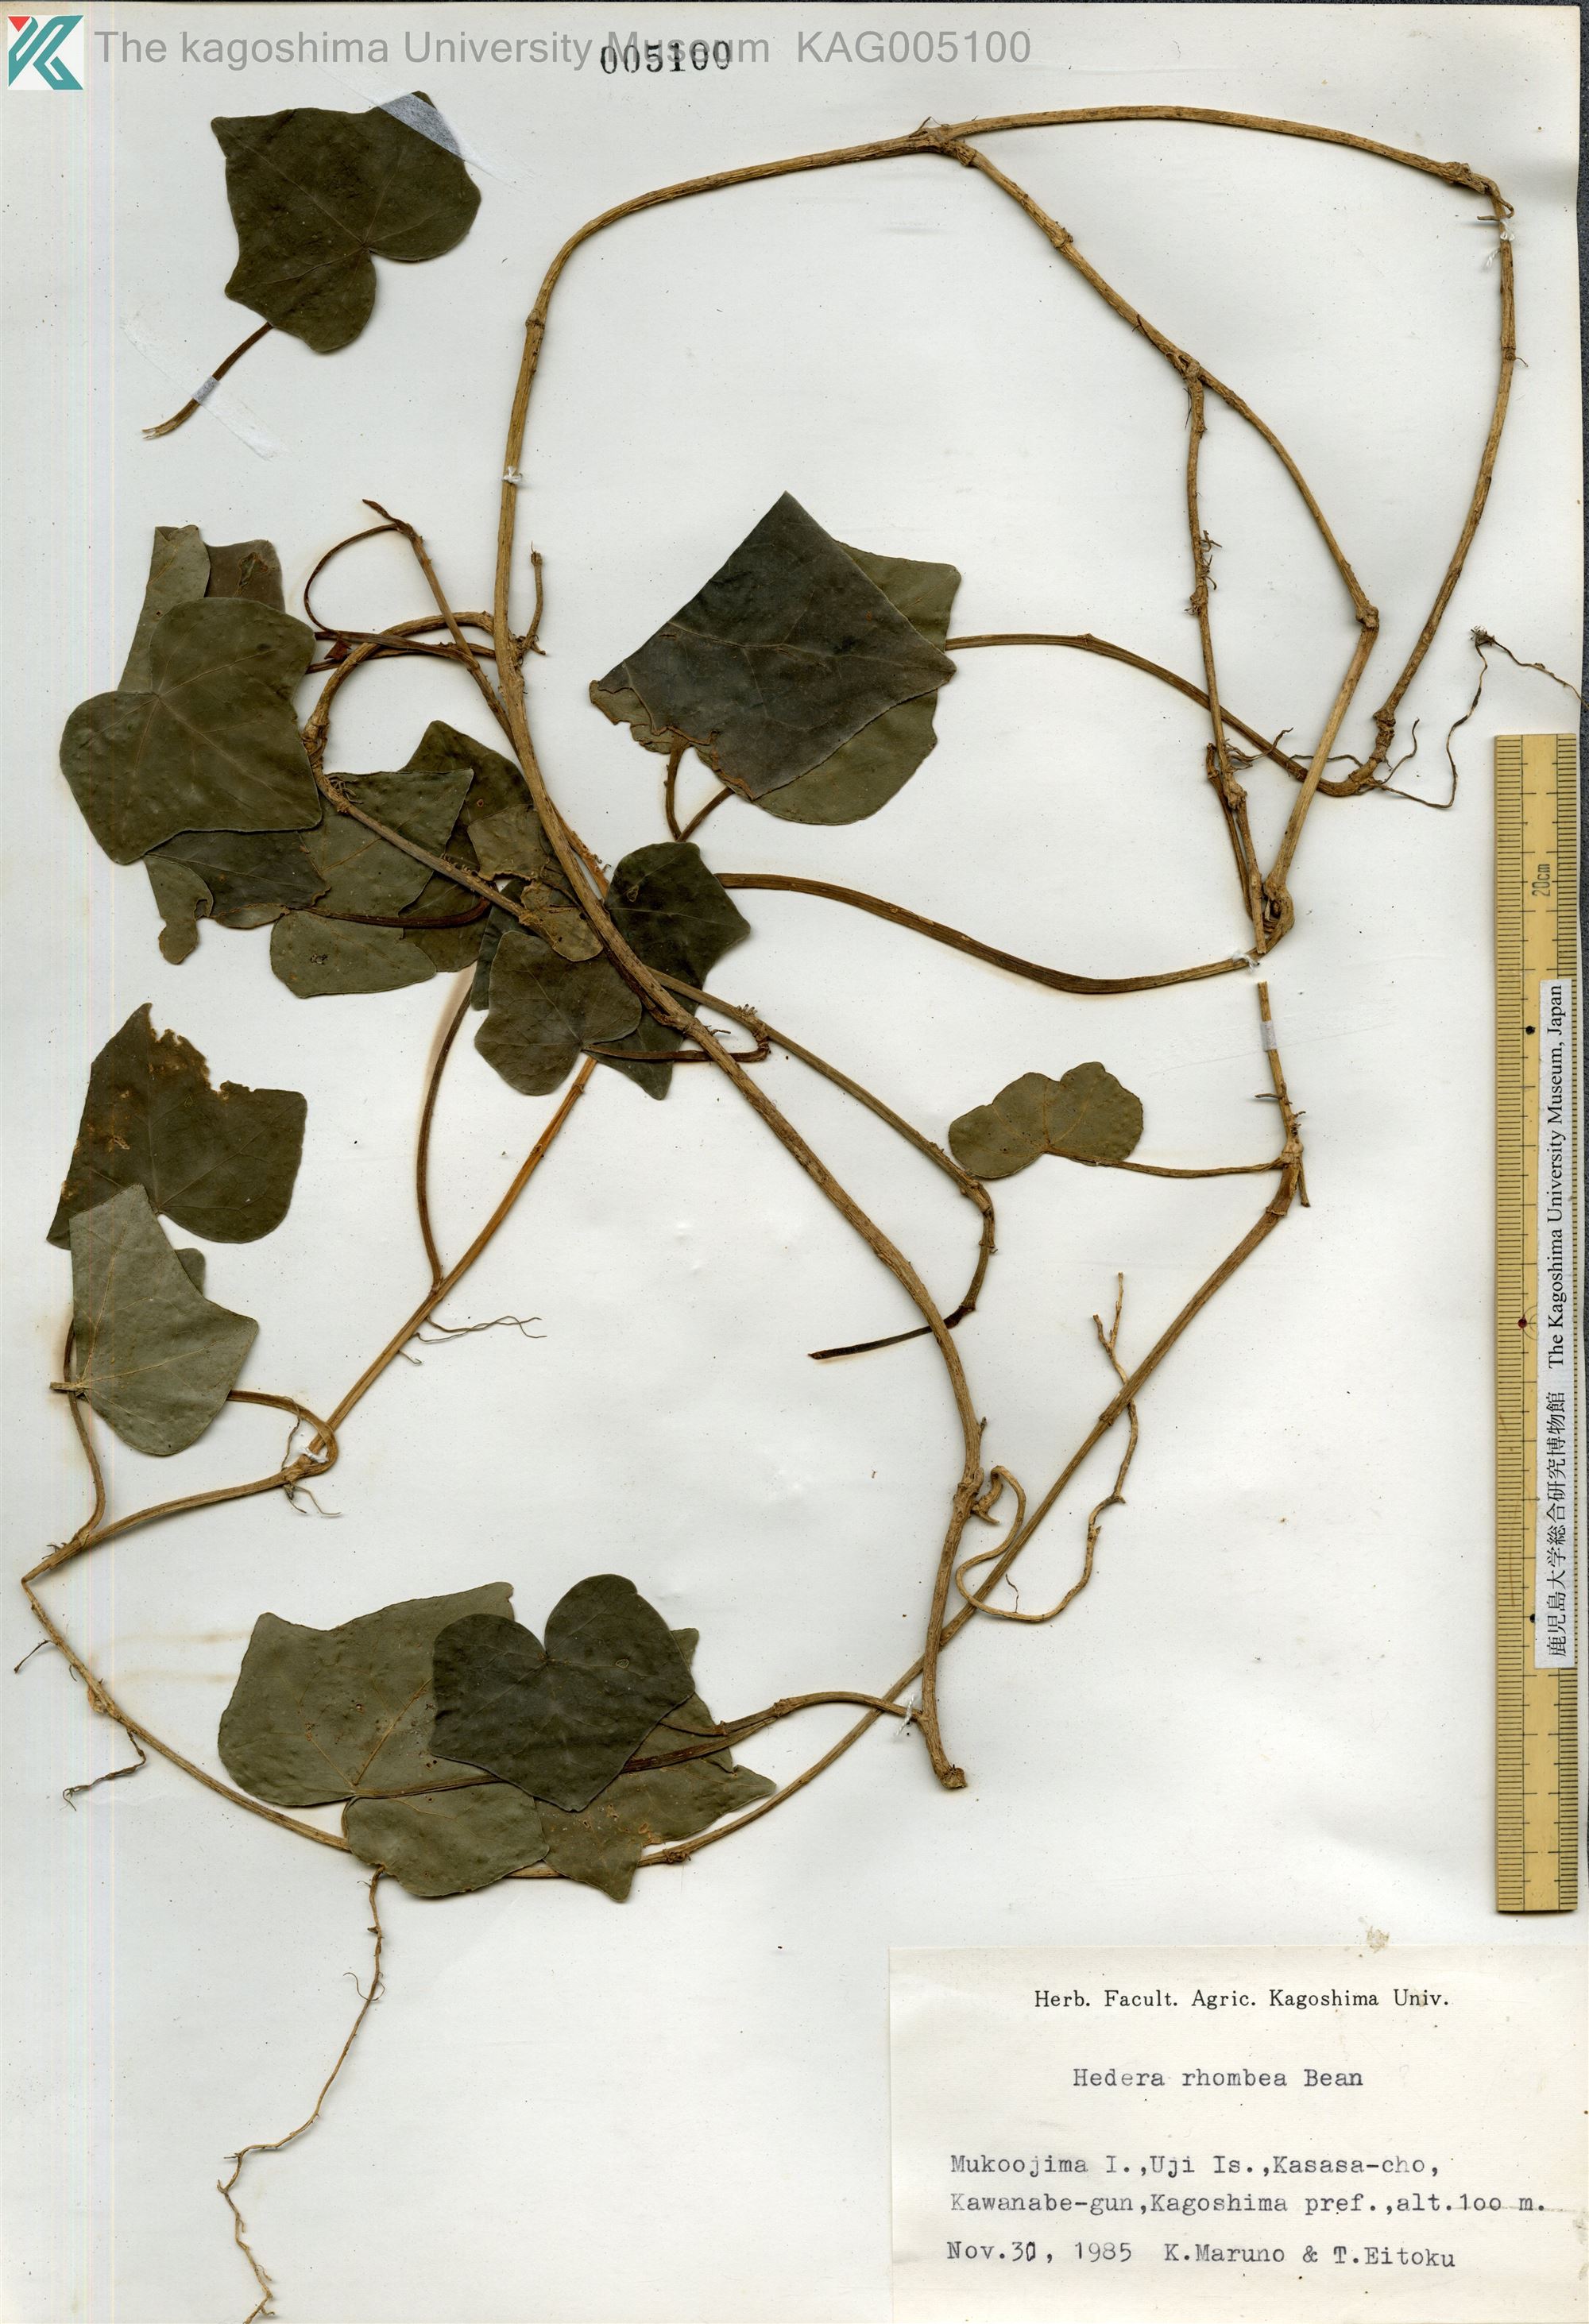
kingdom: Plantae
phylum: Tracheophyta
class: Magnoliopsida
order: Apiales
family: Araliaceae
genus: Hedera
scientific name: Hedera rhombea
